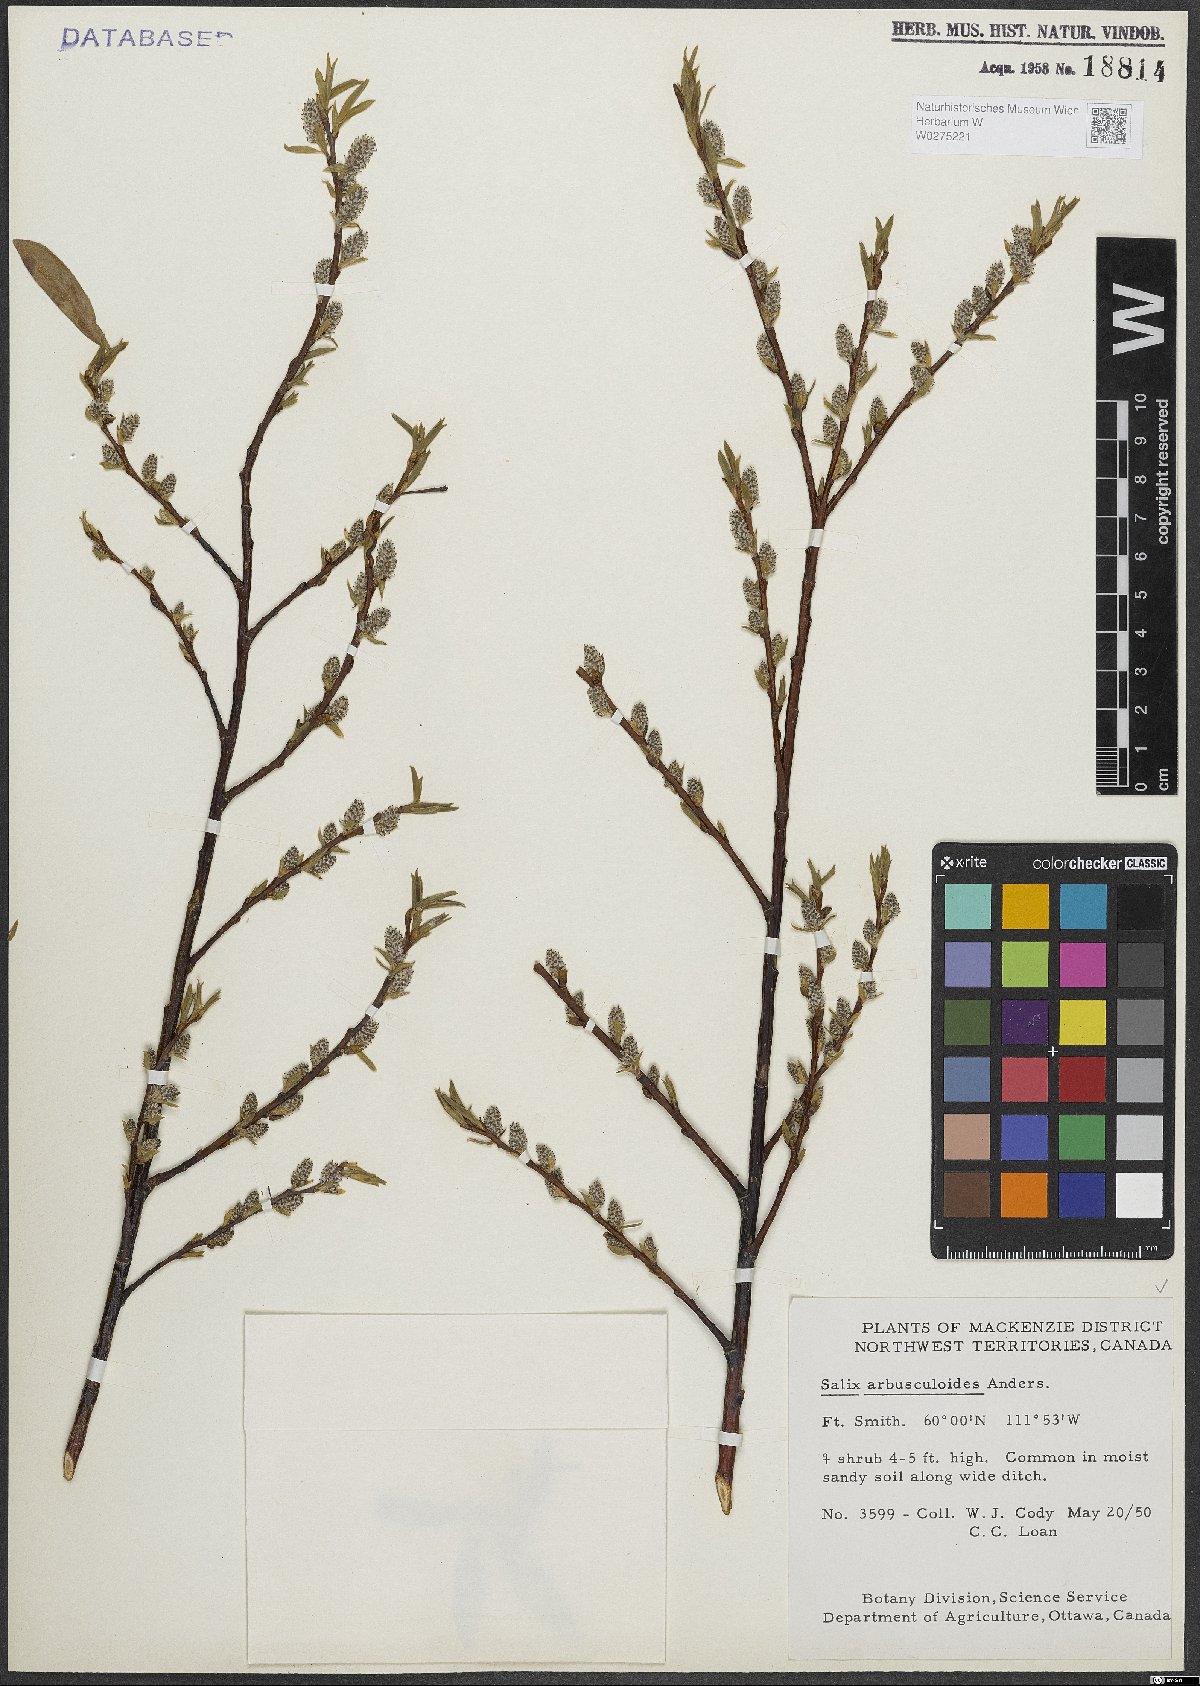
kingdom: Plantae
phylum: Tracheophyta
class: Magnoliopsida
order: Malpighiales
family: Salicaceae
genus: Salix
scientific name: Salix arbusculoides
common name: Little-tree willow
